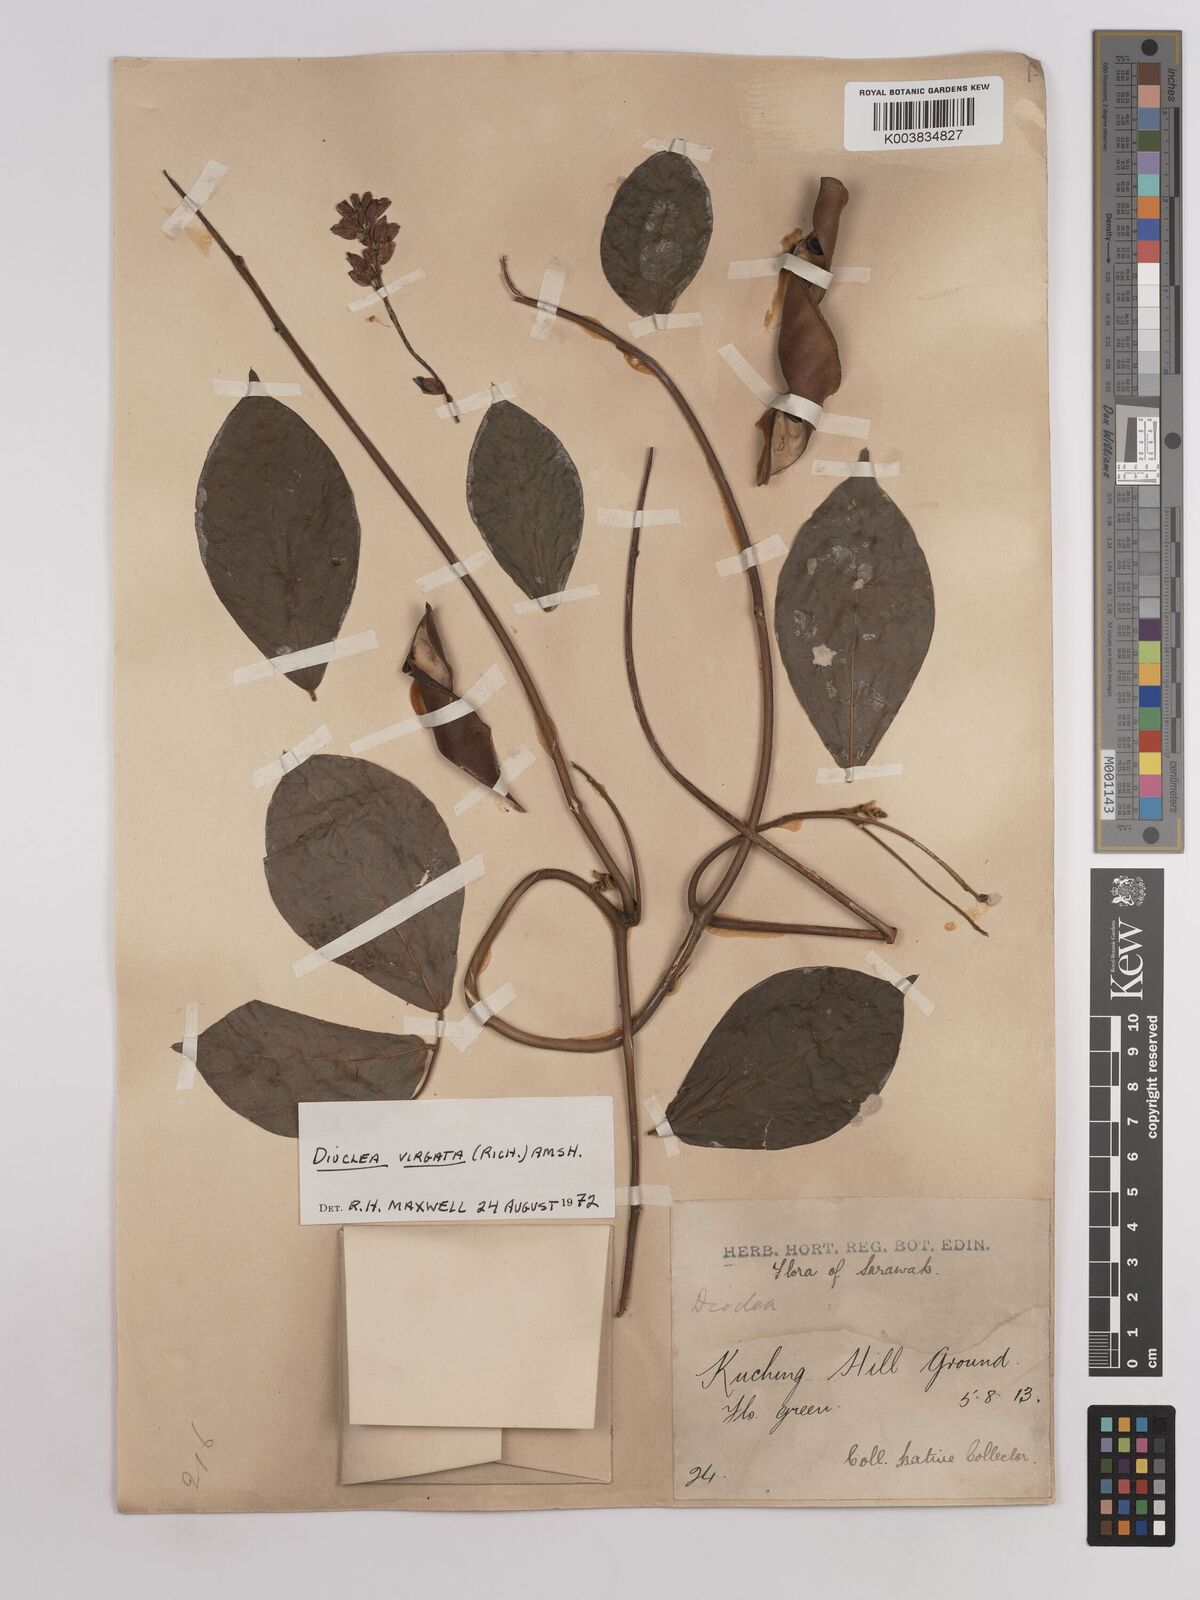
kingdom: Plantae
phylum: Tracheophyta
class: Magnoliopsida
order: Fabales
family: Fabaceae
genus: Dioclea
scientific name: Dioclea virgata
